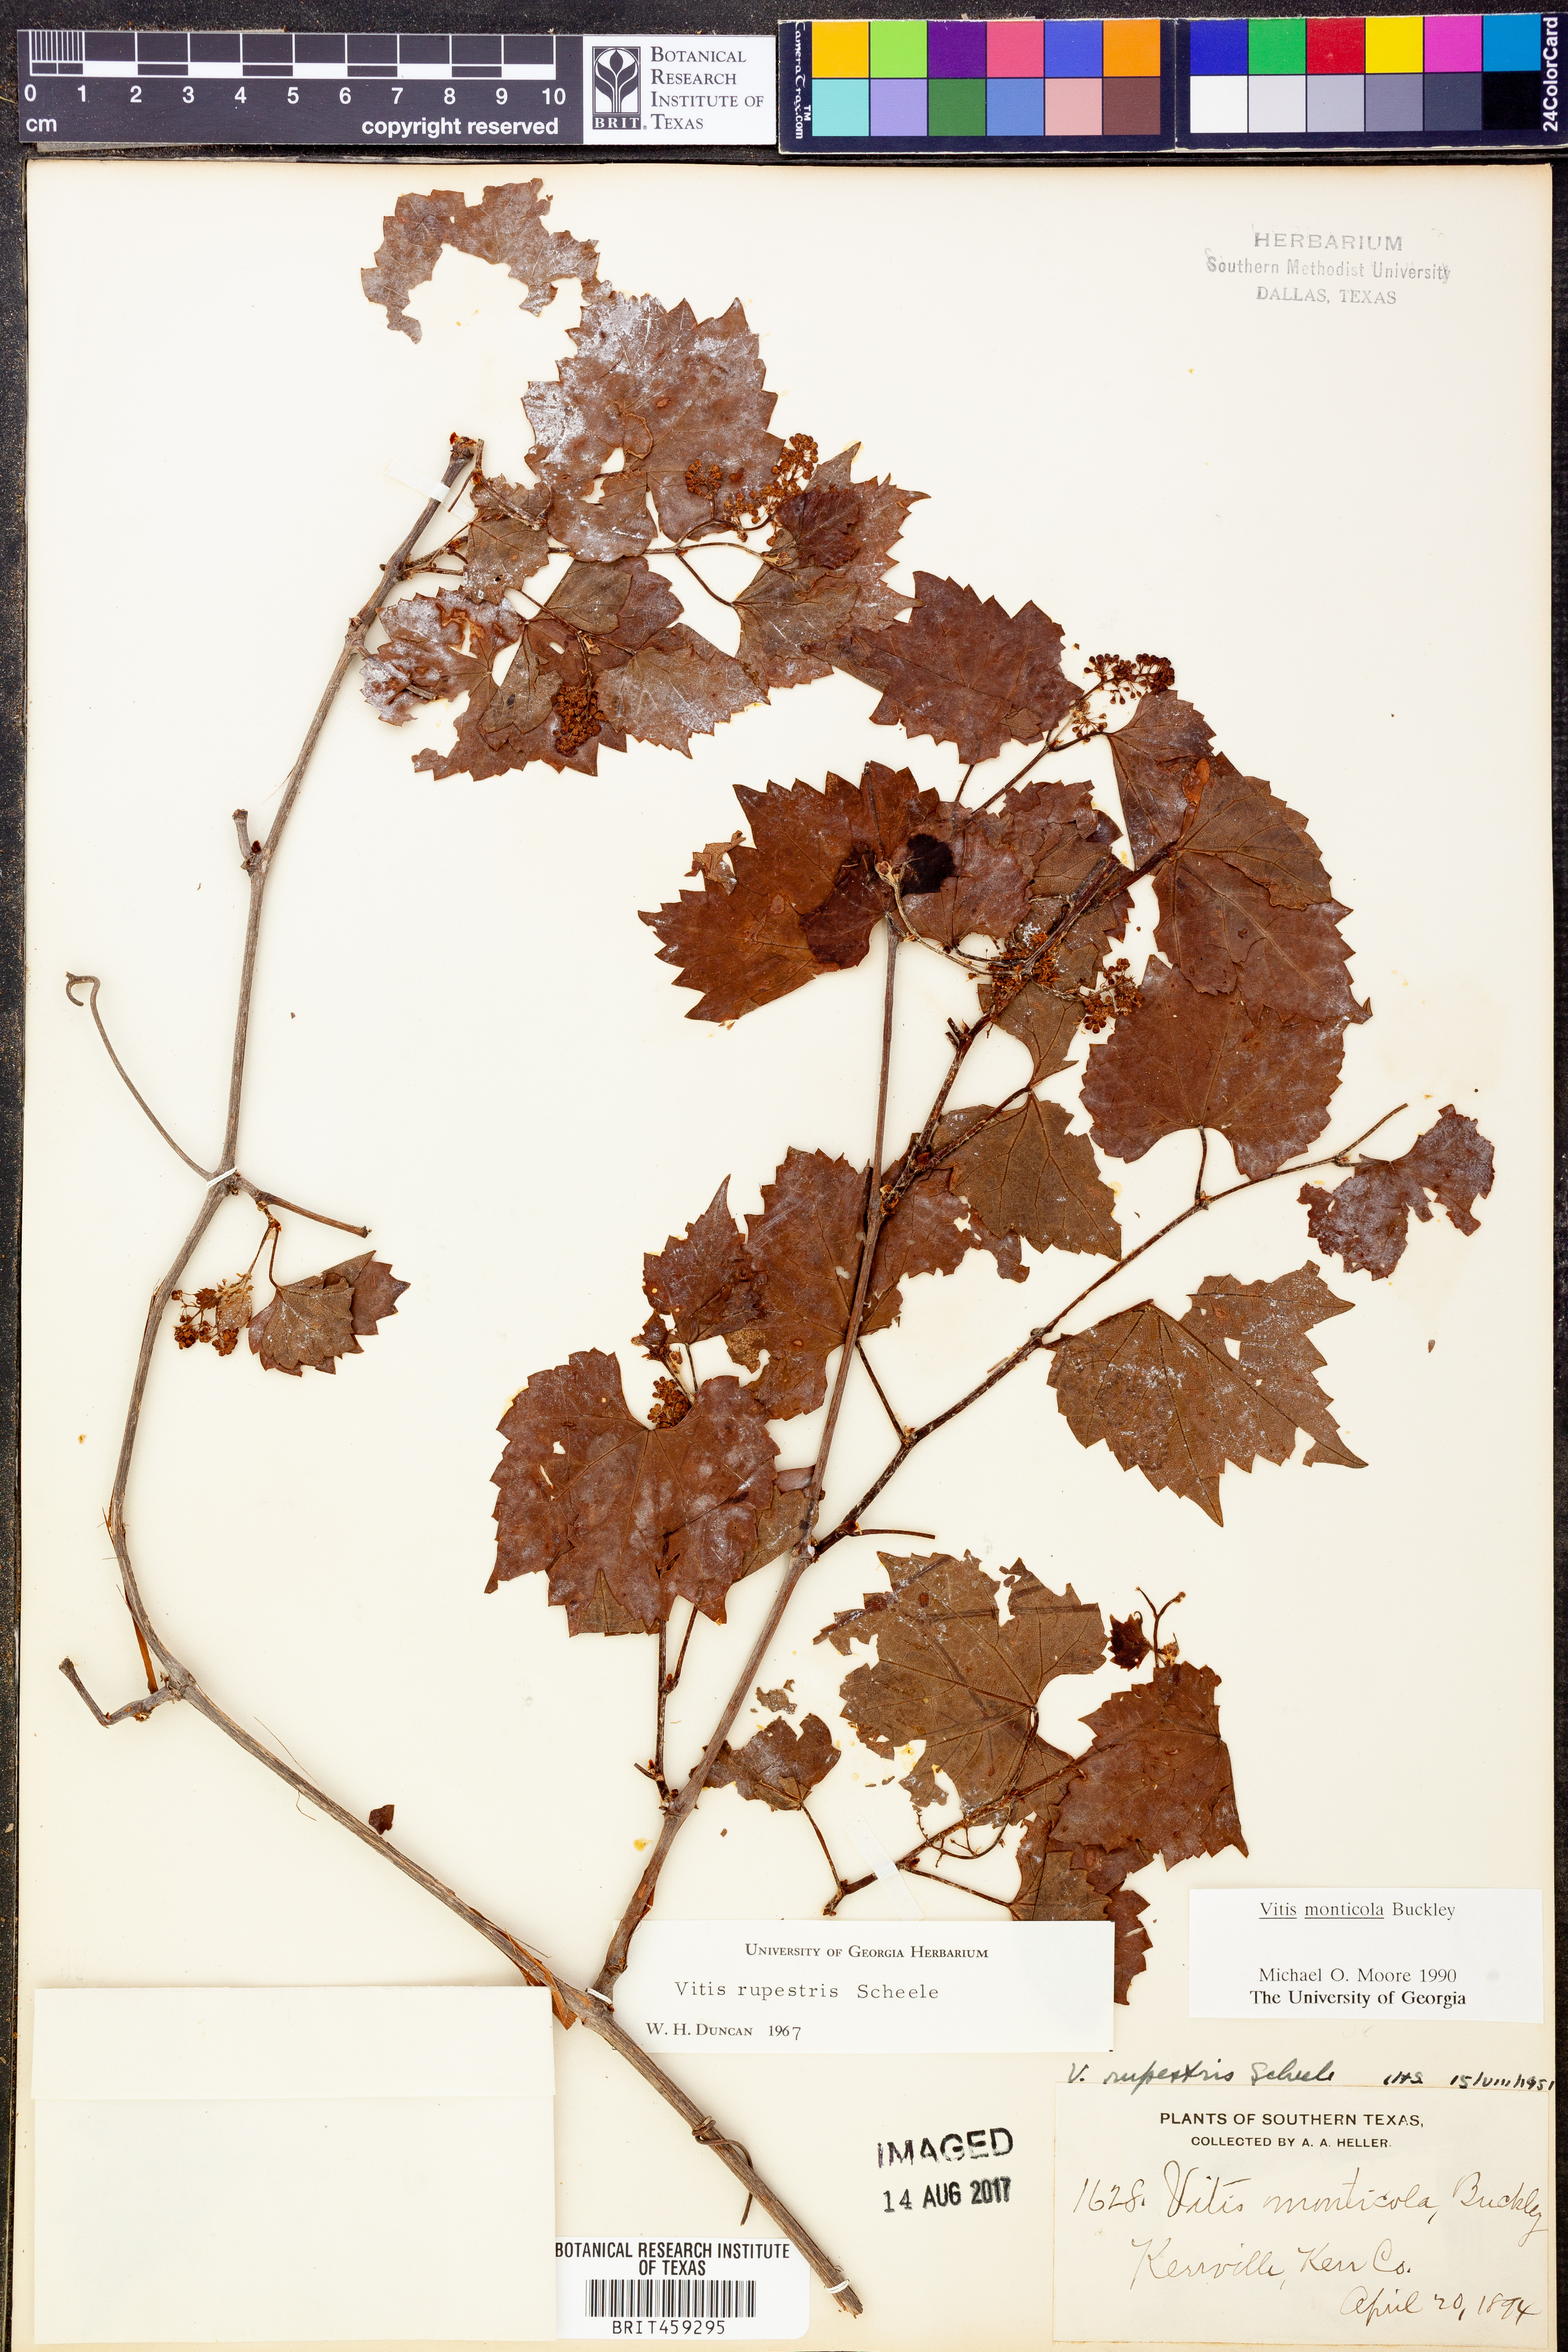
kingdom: Plantae
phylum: Tracheophyta
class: Magnoliopsida
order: Vitales
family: Vitaceae
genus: Vitis
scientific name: Vitis monticola
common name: Mountain grape
